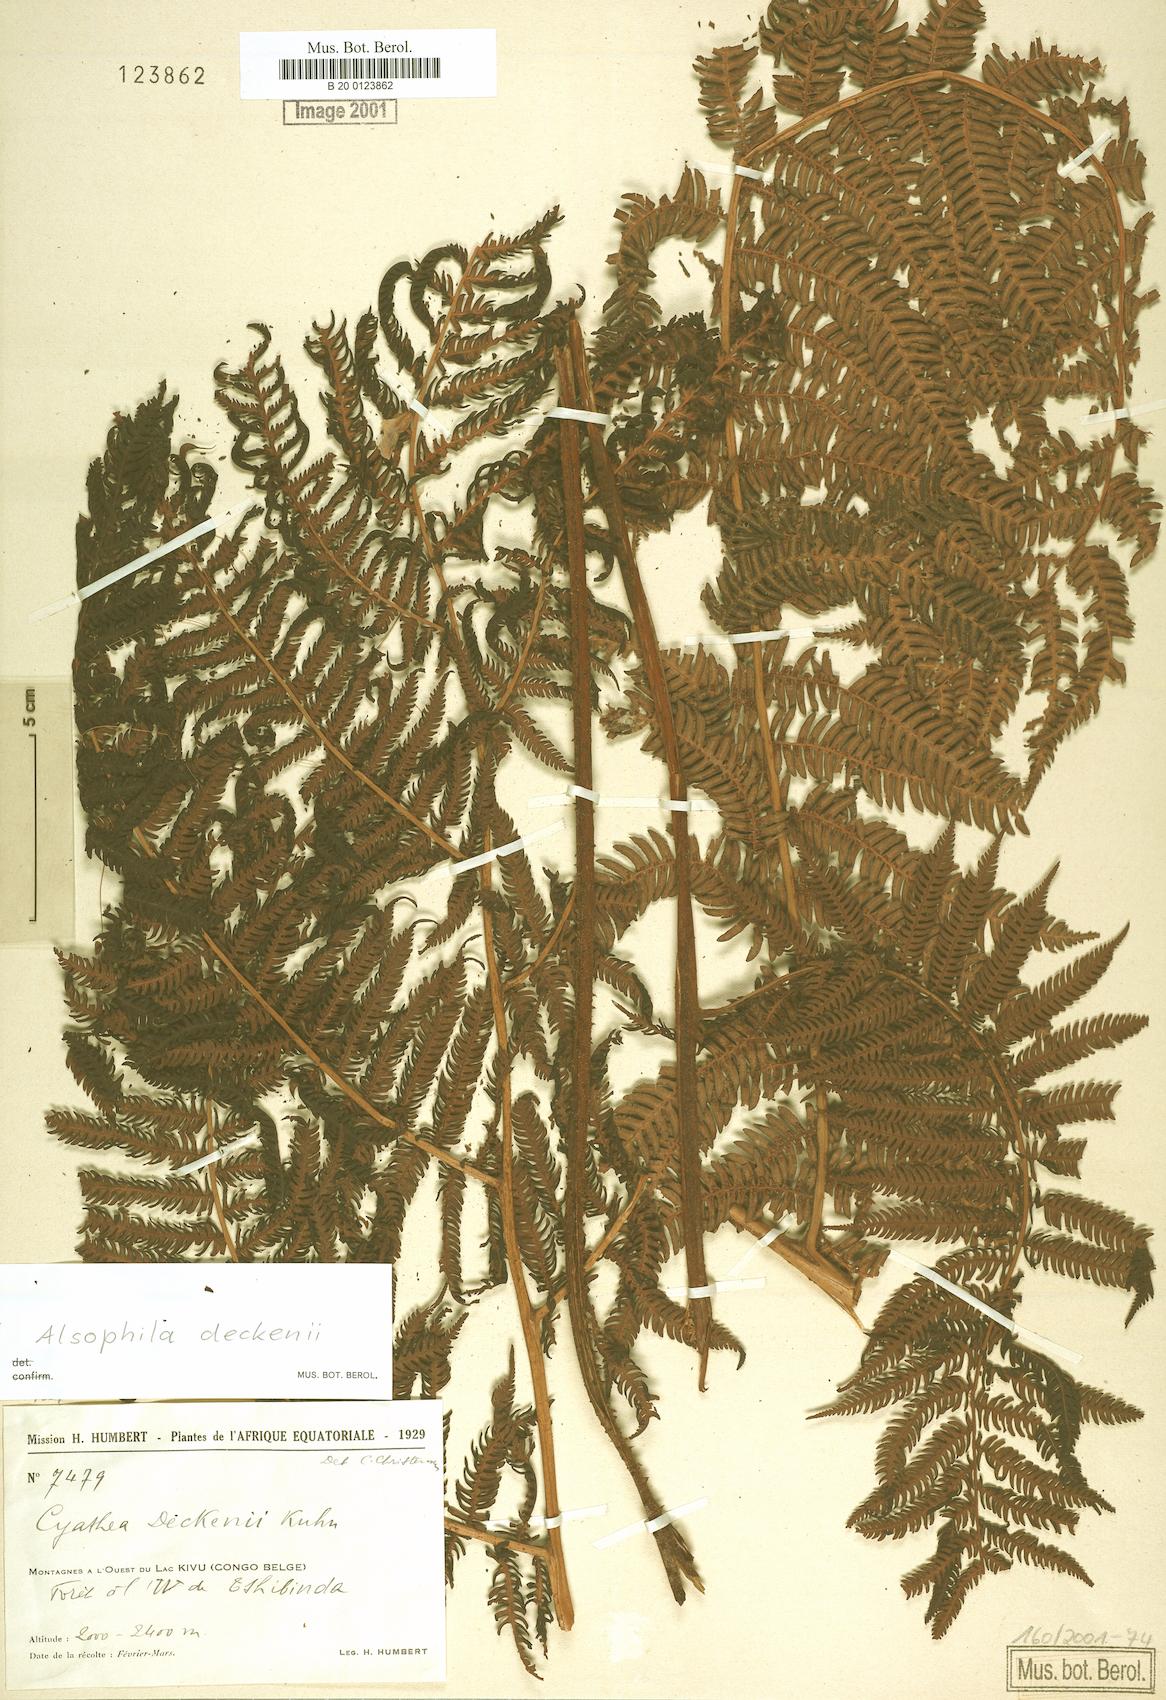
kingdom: Plantae
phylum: Tracheophyta
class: Polypodiopsida
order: Cyatheales
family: Cyatheaceae
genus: Alsophila
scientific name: Alsophila deckenii
